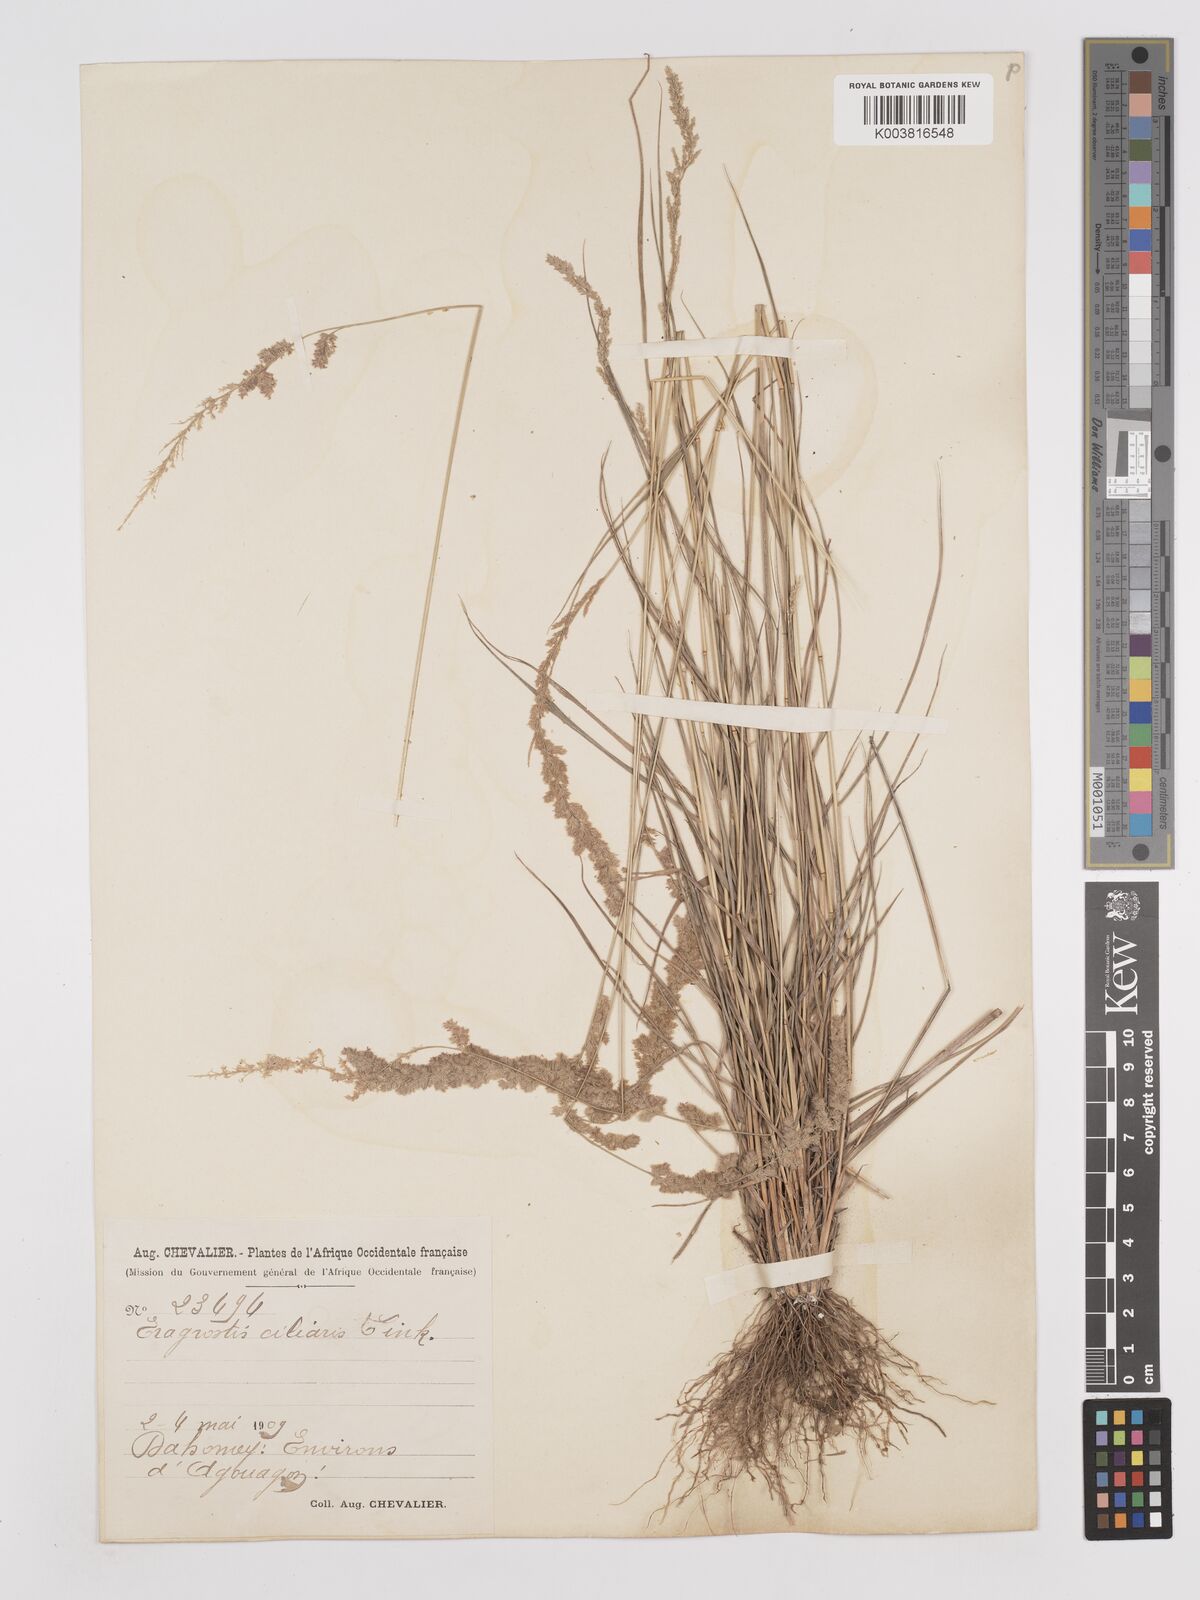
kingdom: Plantae
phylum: Tracheophyta
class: Liliopsida
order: Poales
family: Poaceae
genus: Eragrostis
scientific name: Eragrostis ciliaris
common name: Gophertail lovegrass
